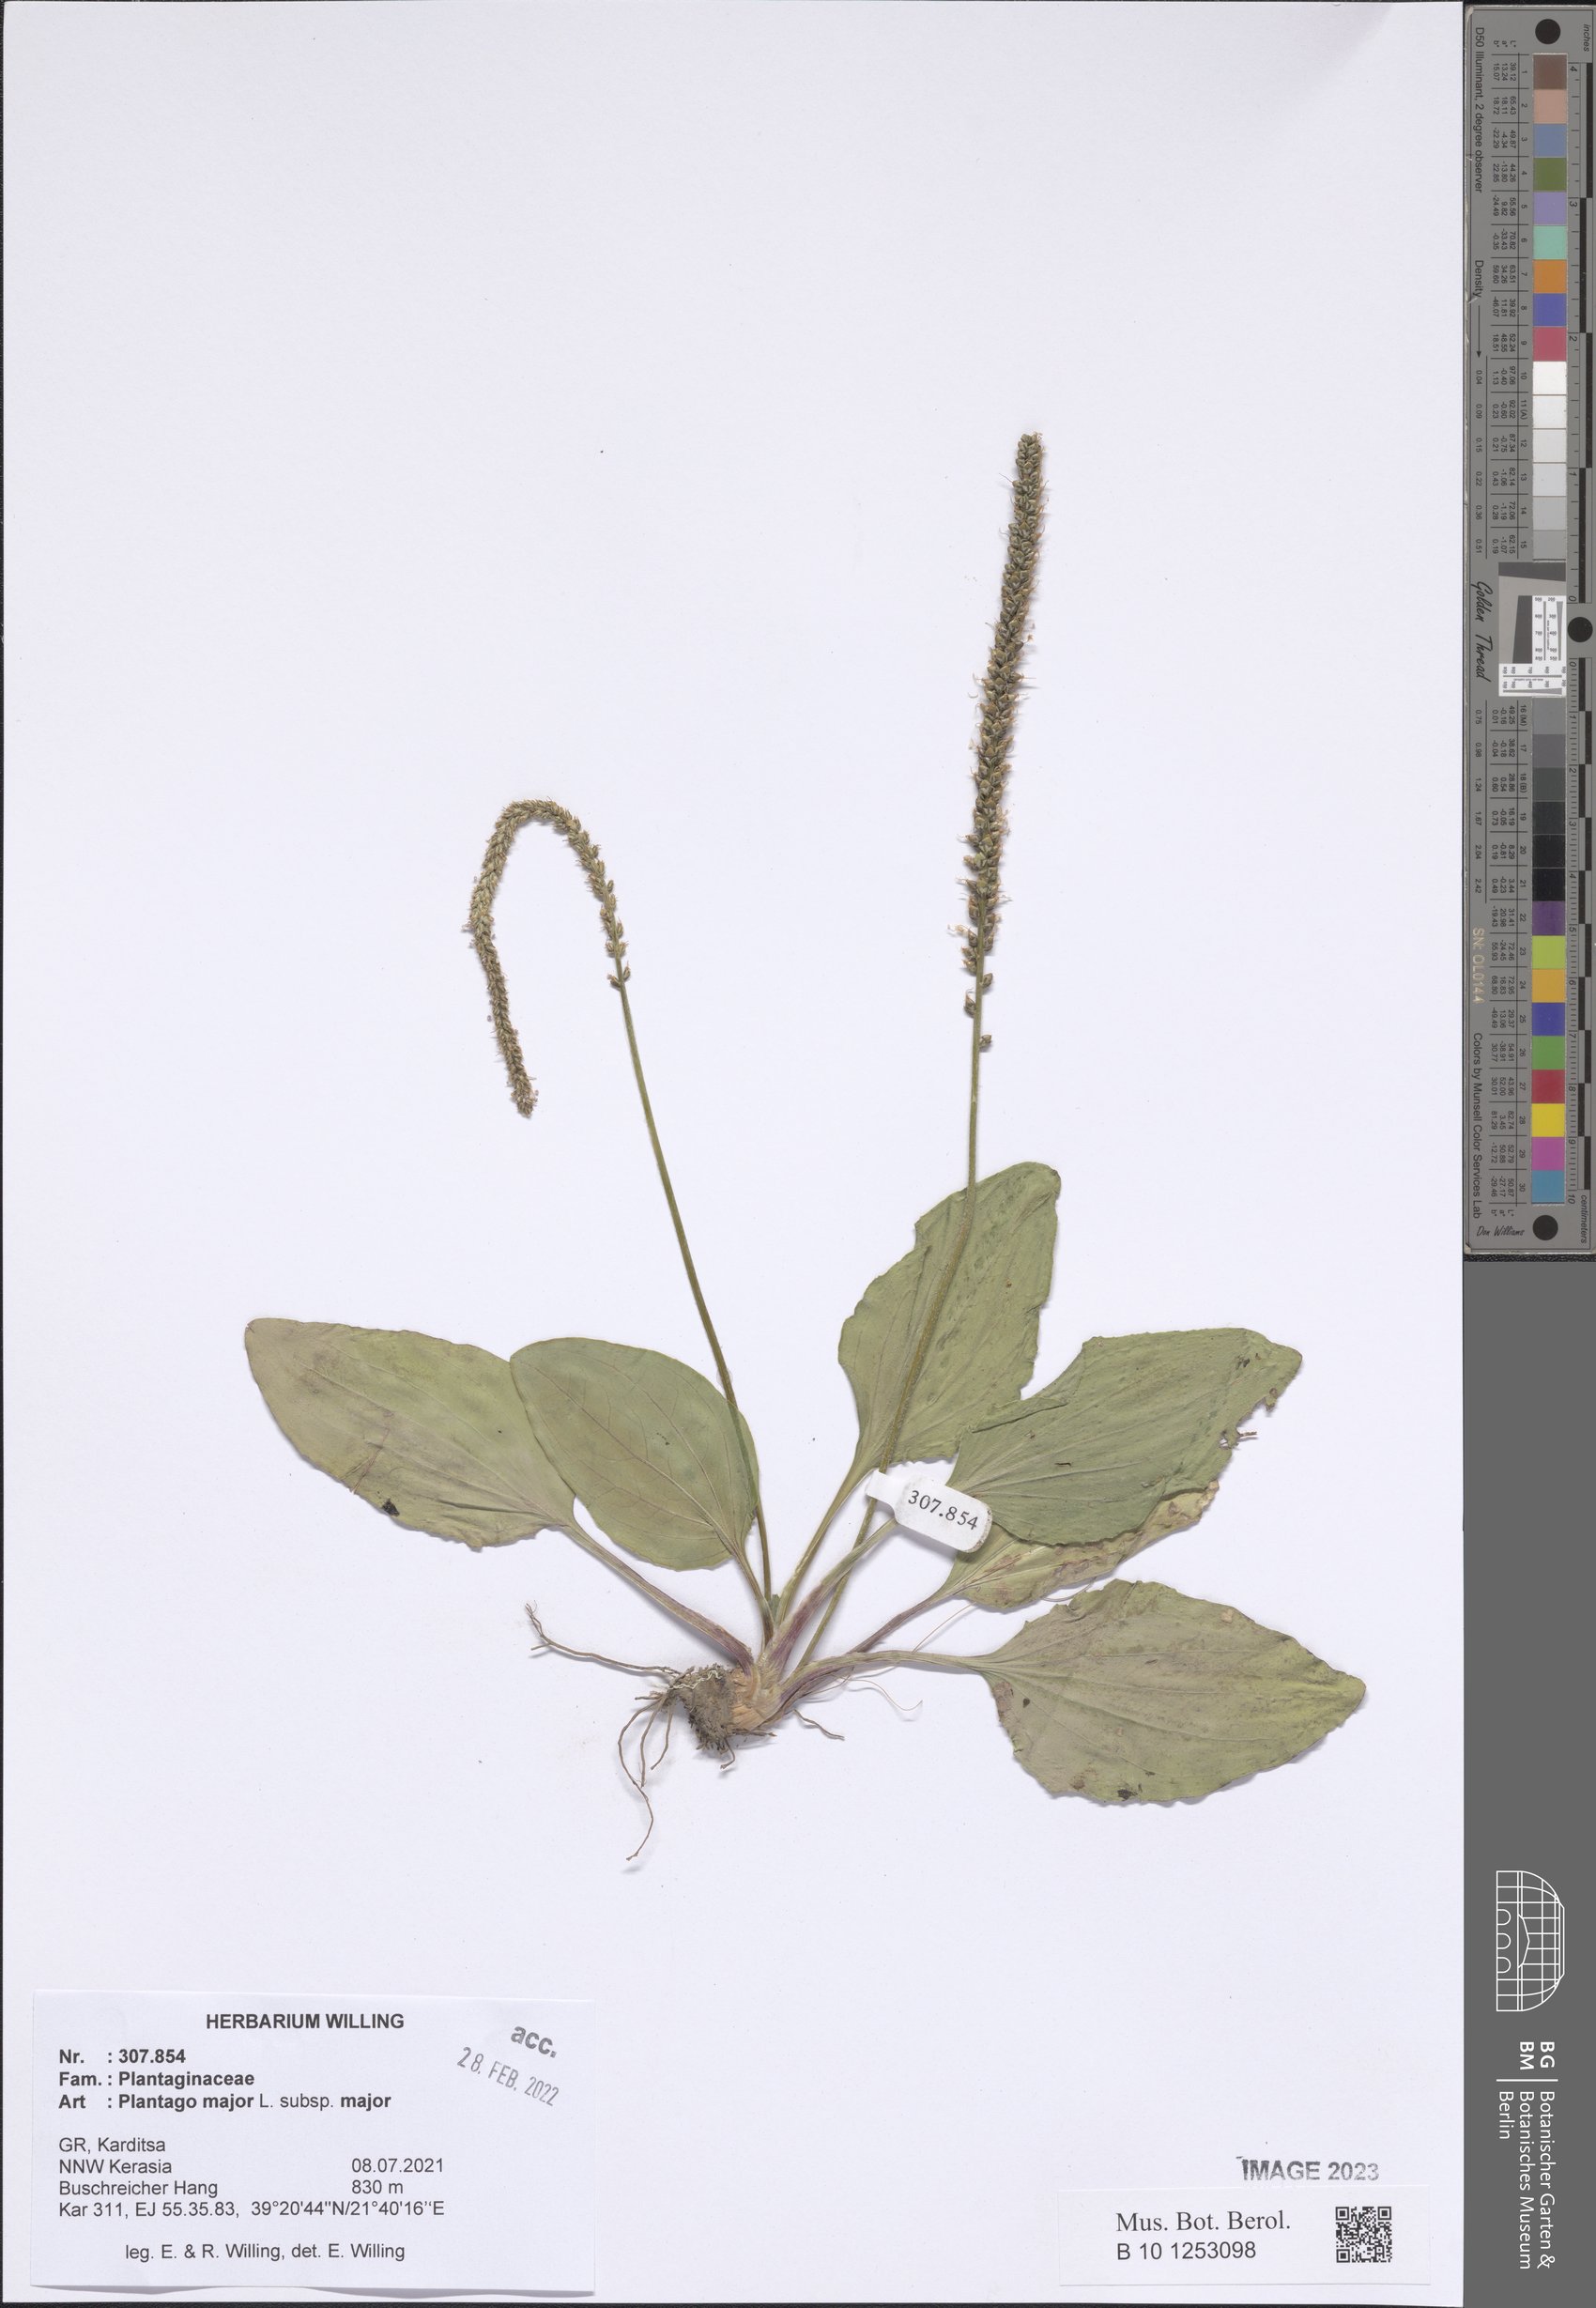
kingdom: Plantae
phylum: Tracheophyta
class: Magnoliopsida
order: Lamiales
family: Plantaginaceae
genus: Plantago
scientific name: Plantago major
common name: Common plantain
